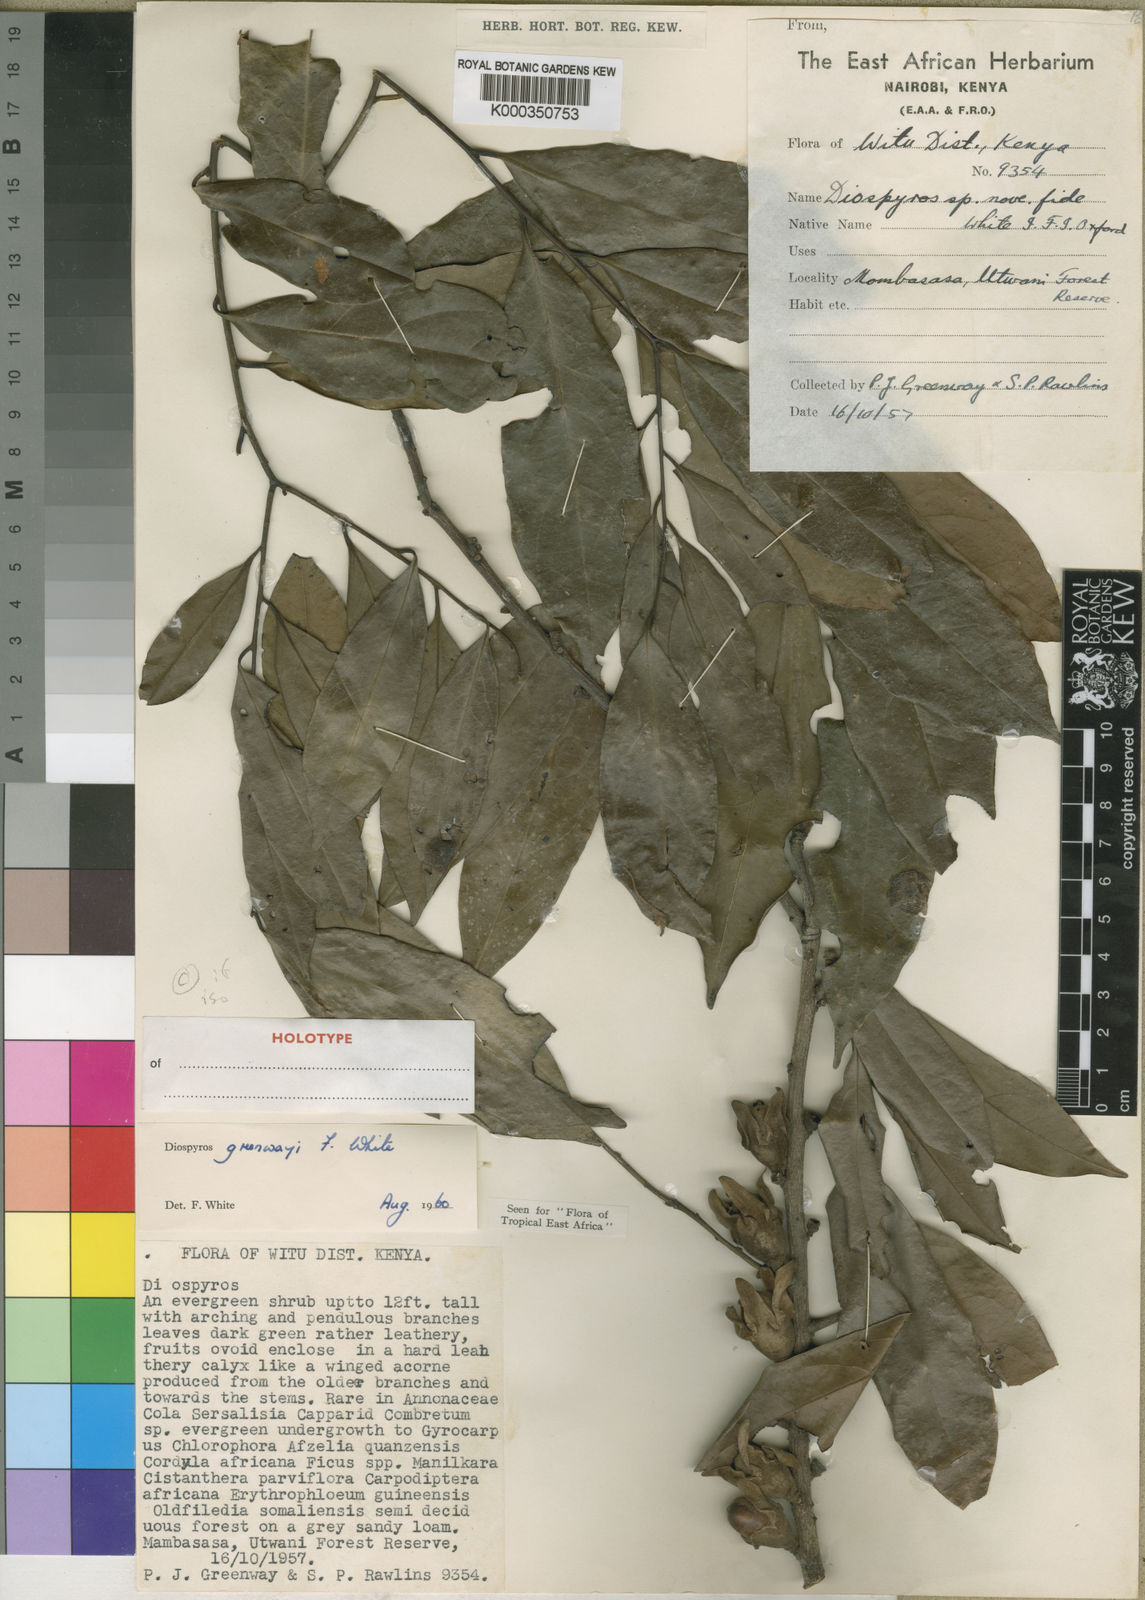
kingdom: Plantae
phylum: Tracheophyta
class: Magnoliopsida
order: Ericales
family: Ebenaceae
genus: Diospyros
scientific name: Diospyros greenwayi
